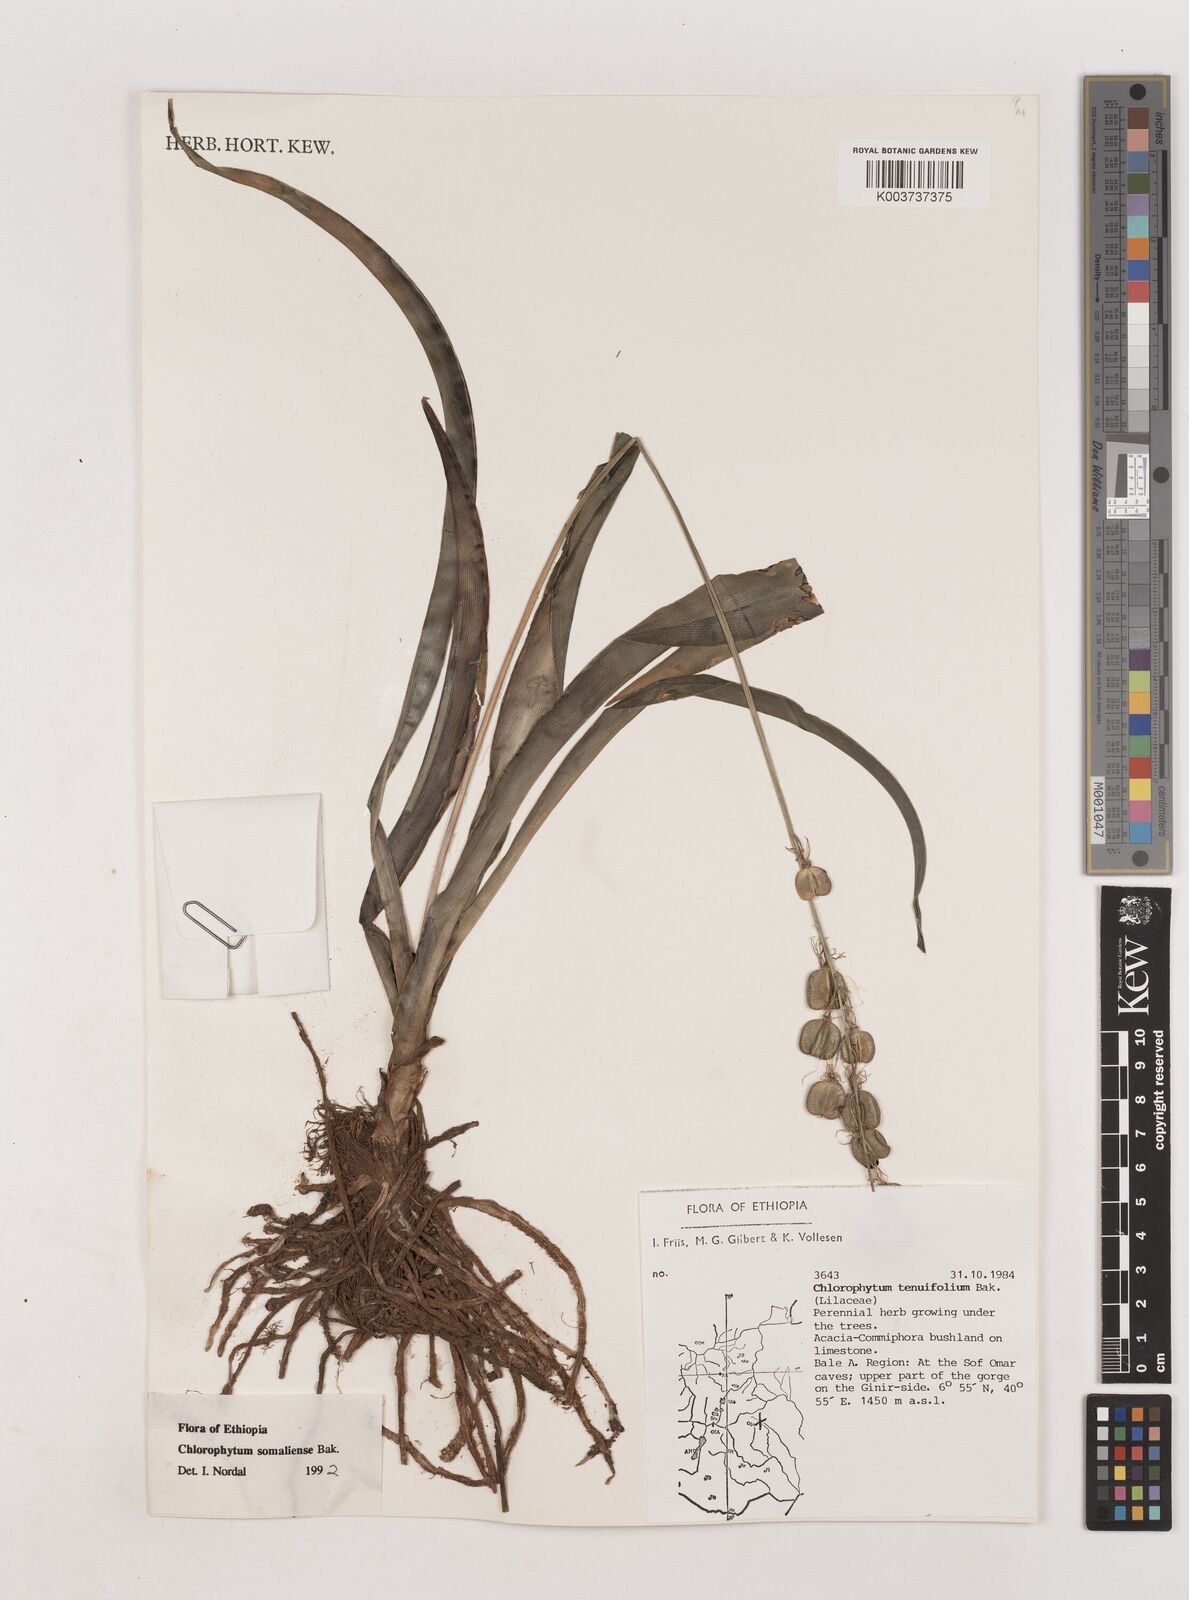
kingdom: Plantae
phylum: Tracheophyta
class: Liliopsida
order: Asparagales
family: Asparagaceae
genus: Chlorophytum
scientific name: Chlorophytum somaliense
